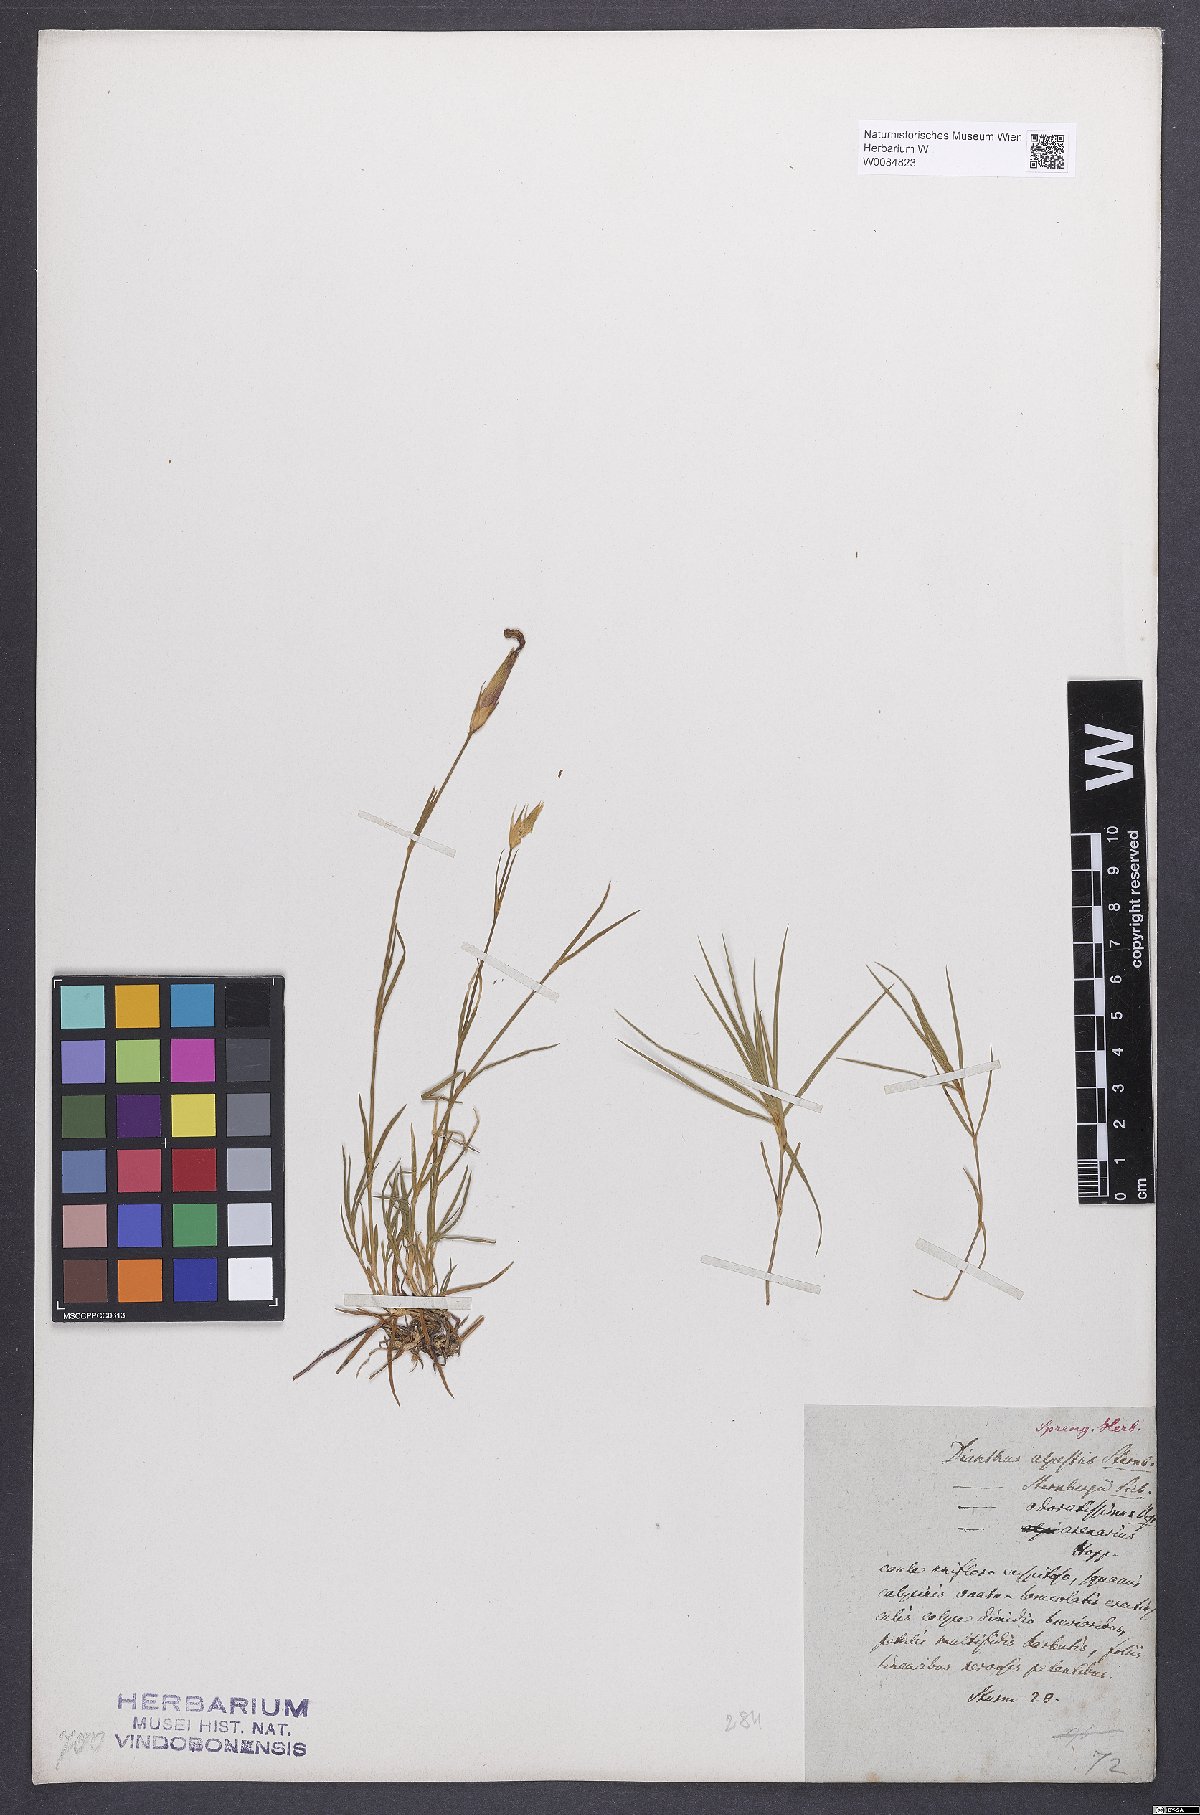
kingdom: Plantae
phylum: Tracheophyta
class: Magnoliopsida
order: Caryophyllales
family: Caryophyllaceae
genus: Dianthus
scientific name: Dianthus monspessulanus
